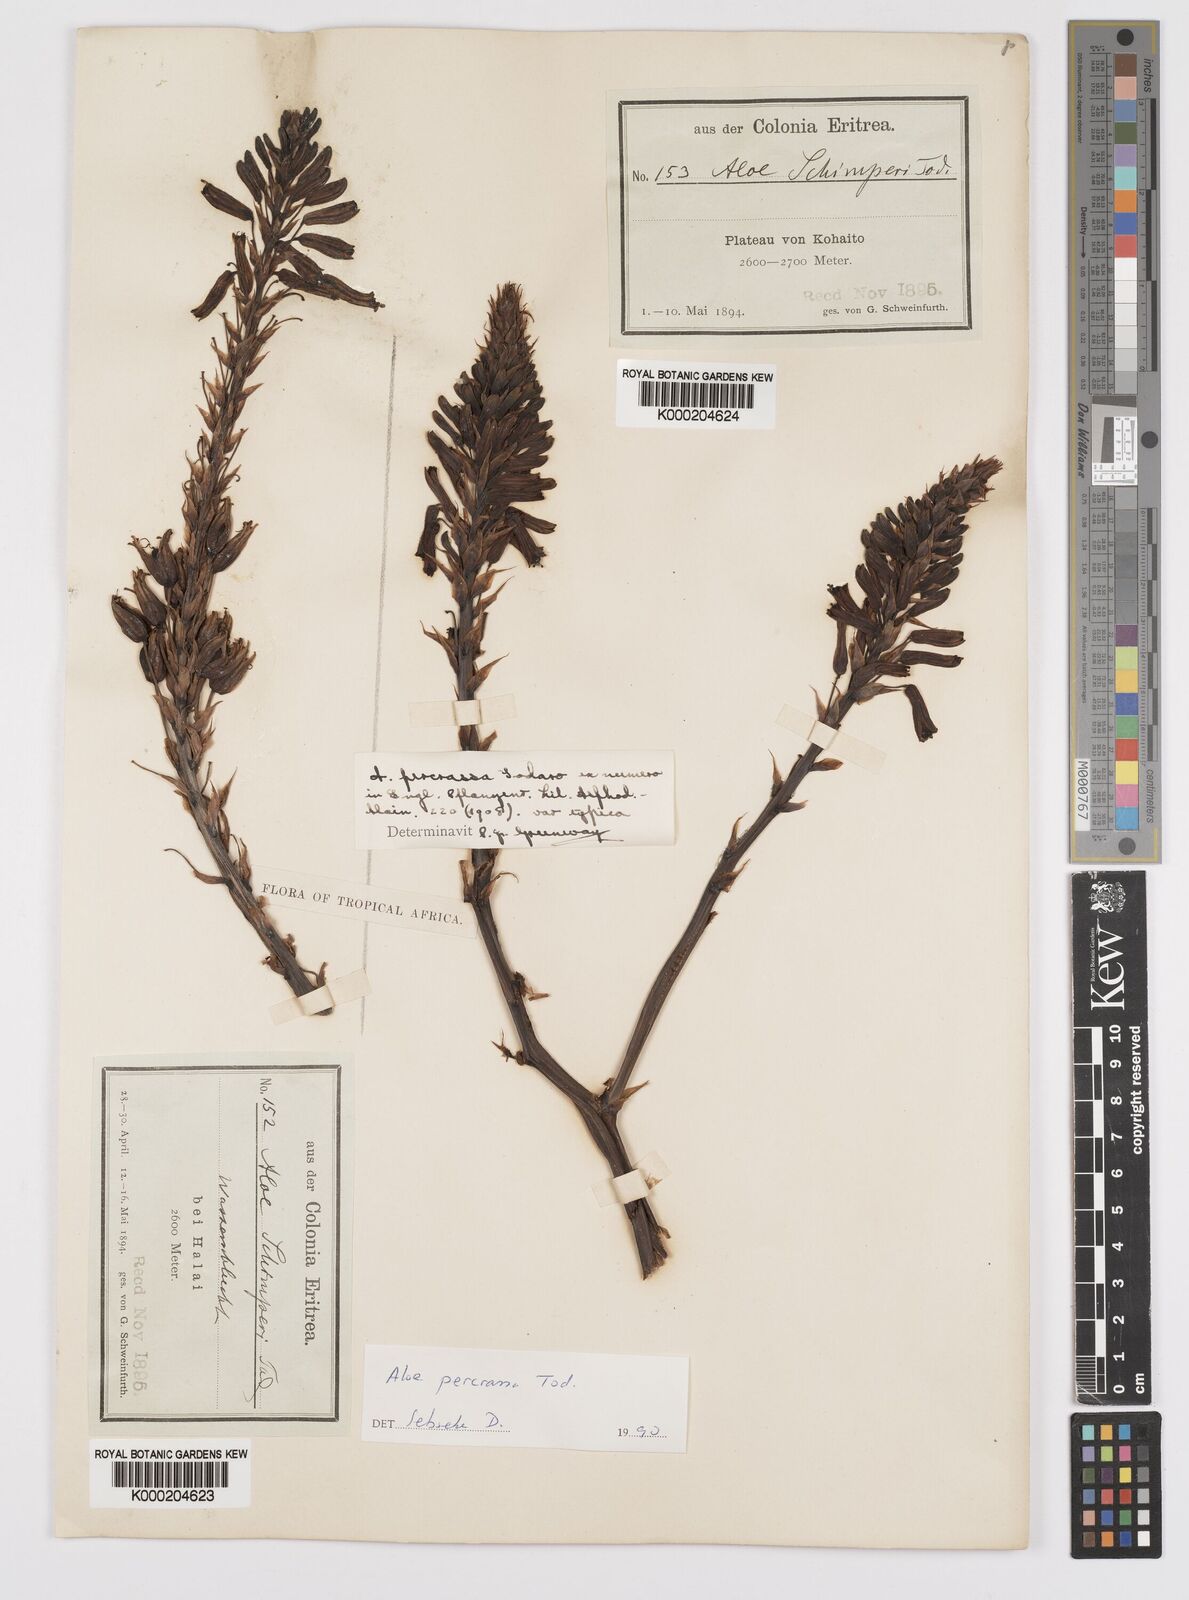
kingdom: Plantae
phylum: Tracheophyta
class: Liliopsida
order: Asparagales
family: Asphodelaceae
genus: Aloe
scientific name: Aloe percrassa
